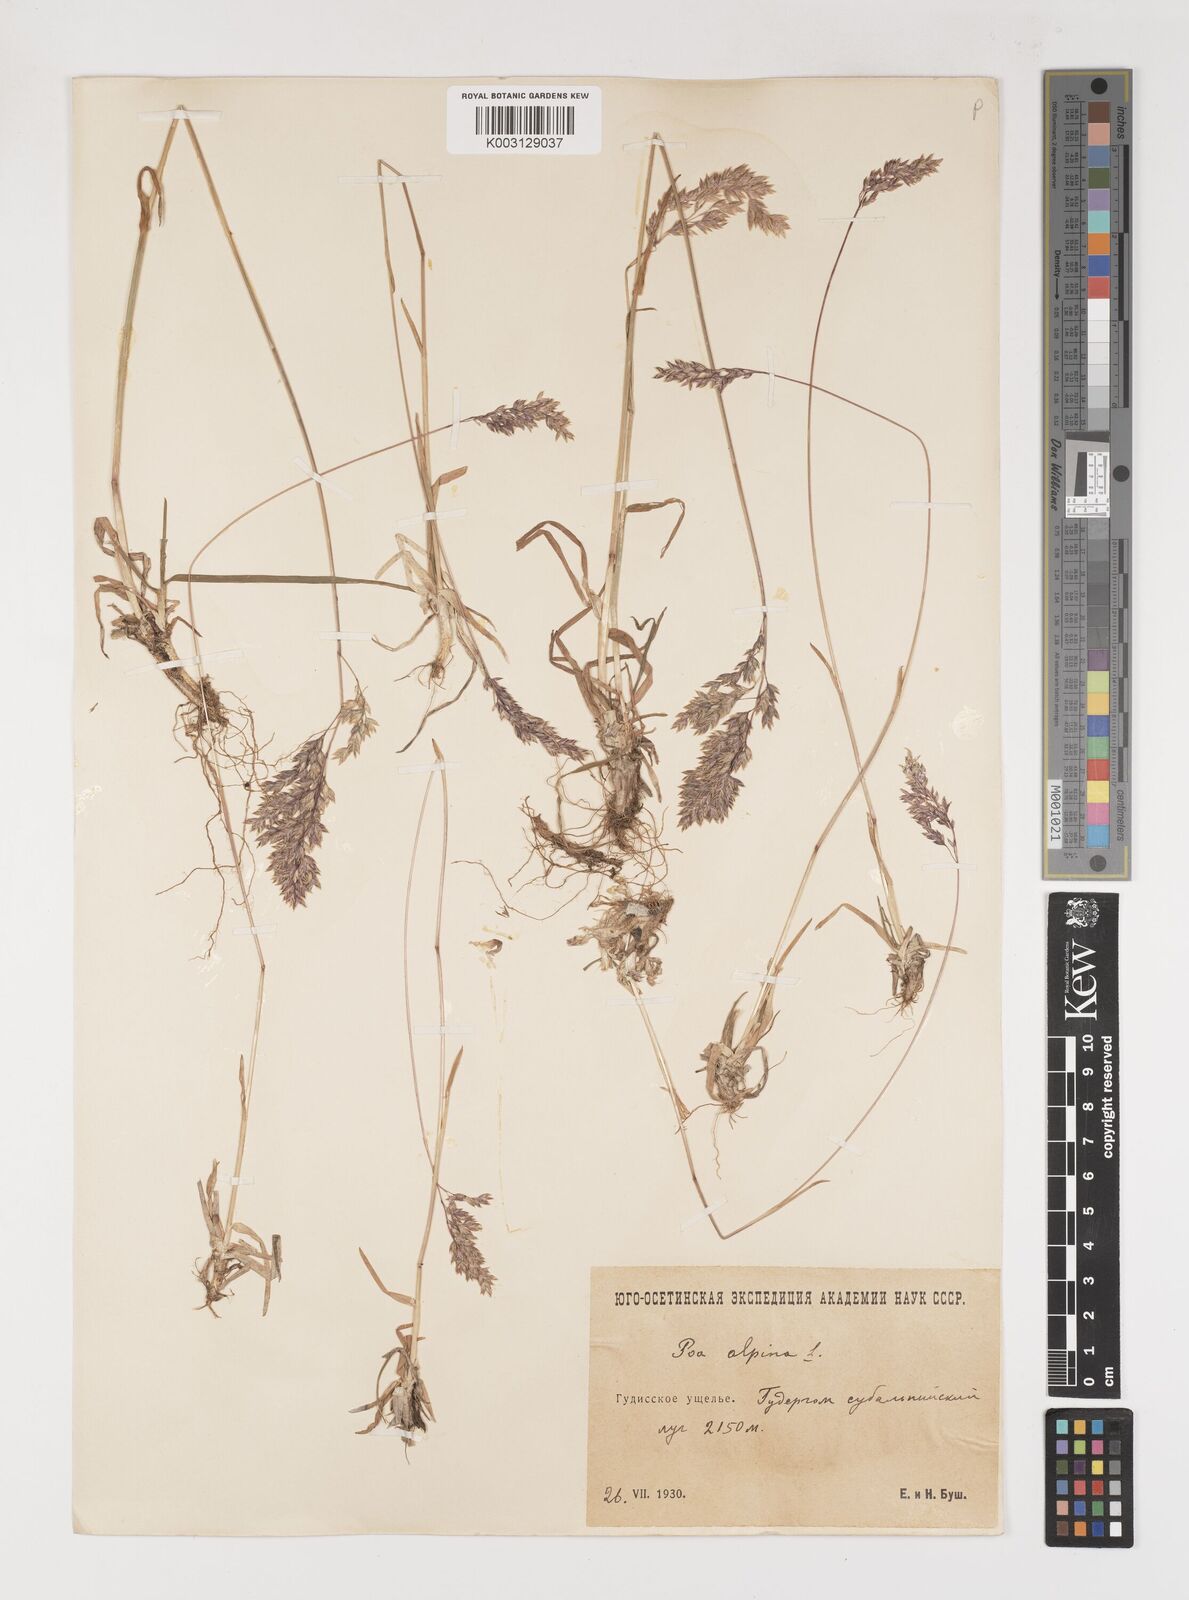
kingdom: Plantae
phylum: Tracheophyta
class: Liliopsida
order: Poales
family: Poaceae
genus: Poa
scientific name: Poa alpina
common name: Alpine bluegrass
